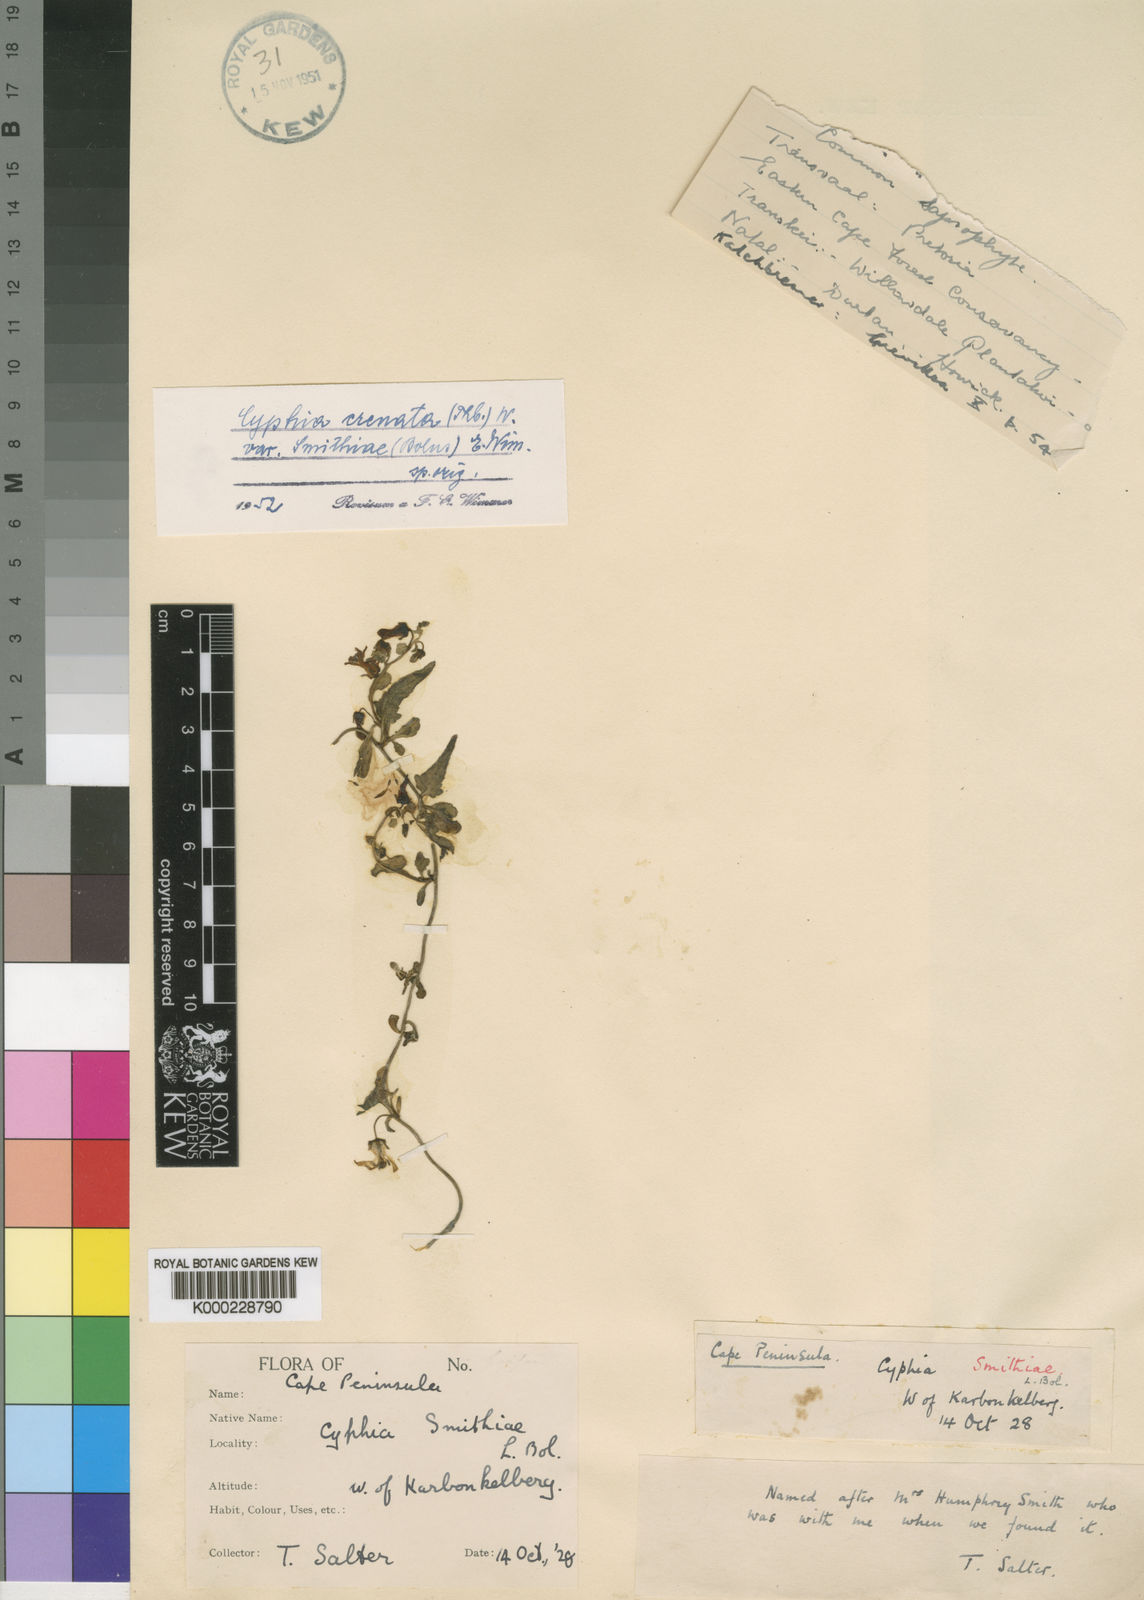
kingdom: Plantae
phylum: Tracheophyta
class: Magnoliopsida
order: Asterales
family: Campanulaceae
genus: Cyphia
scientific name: Cyphia crenata
